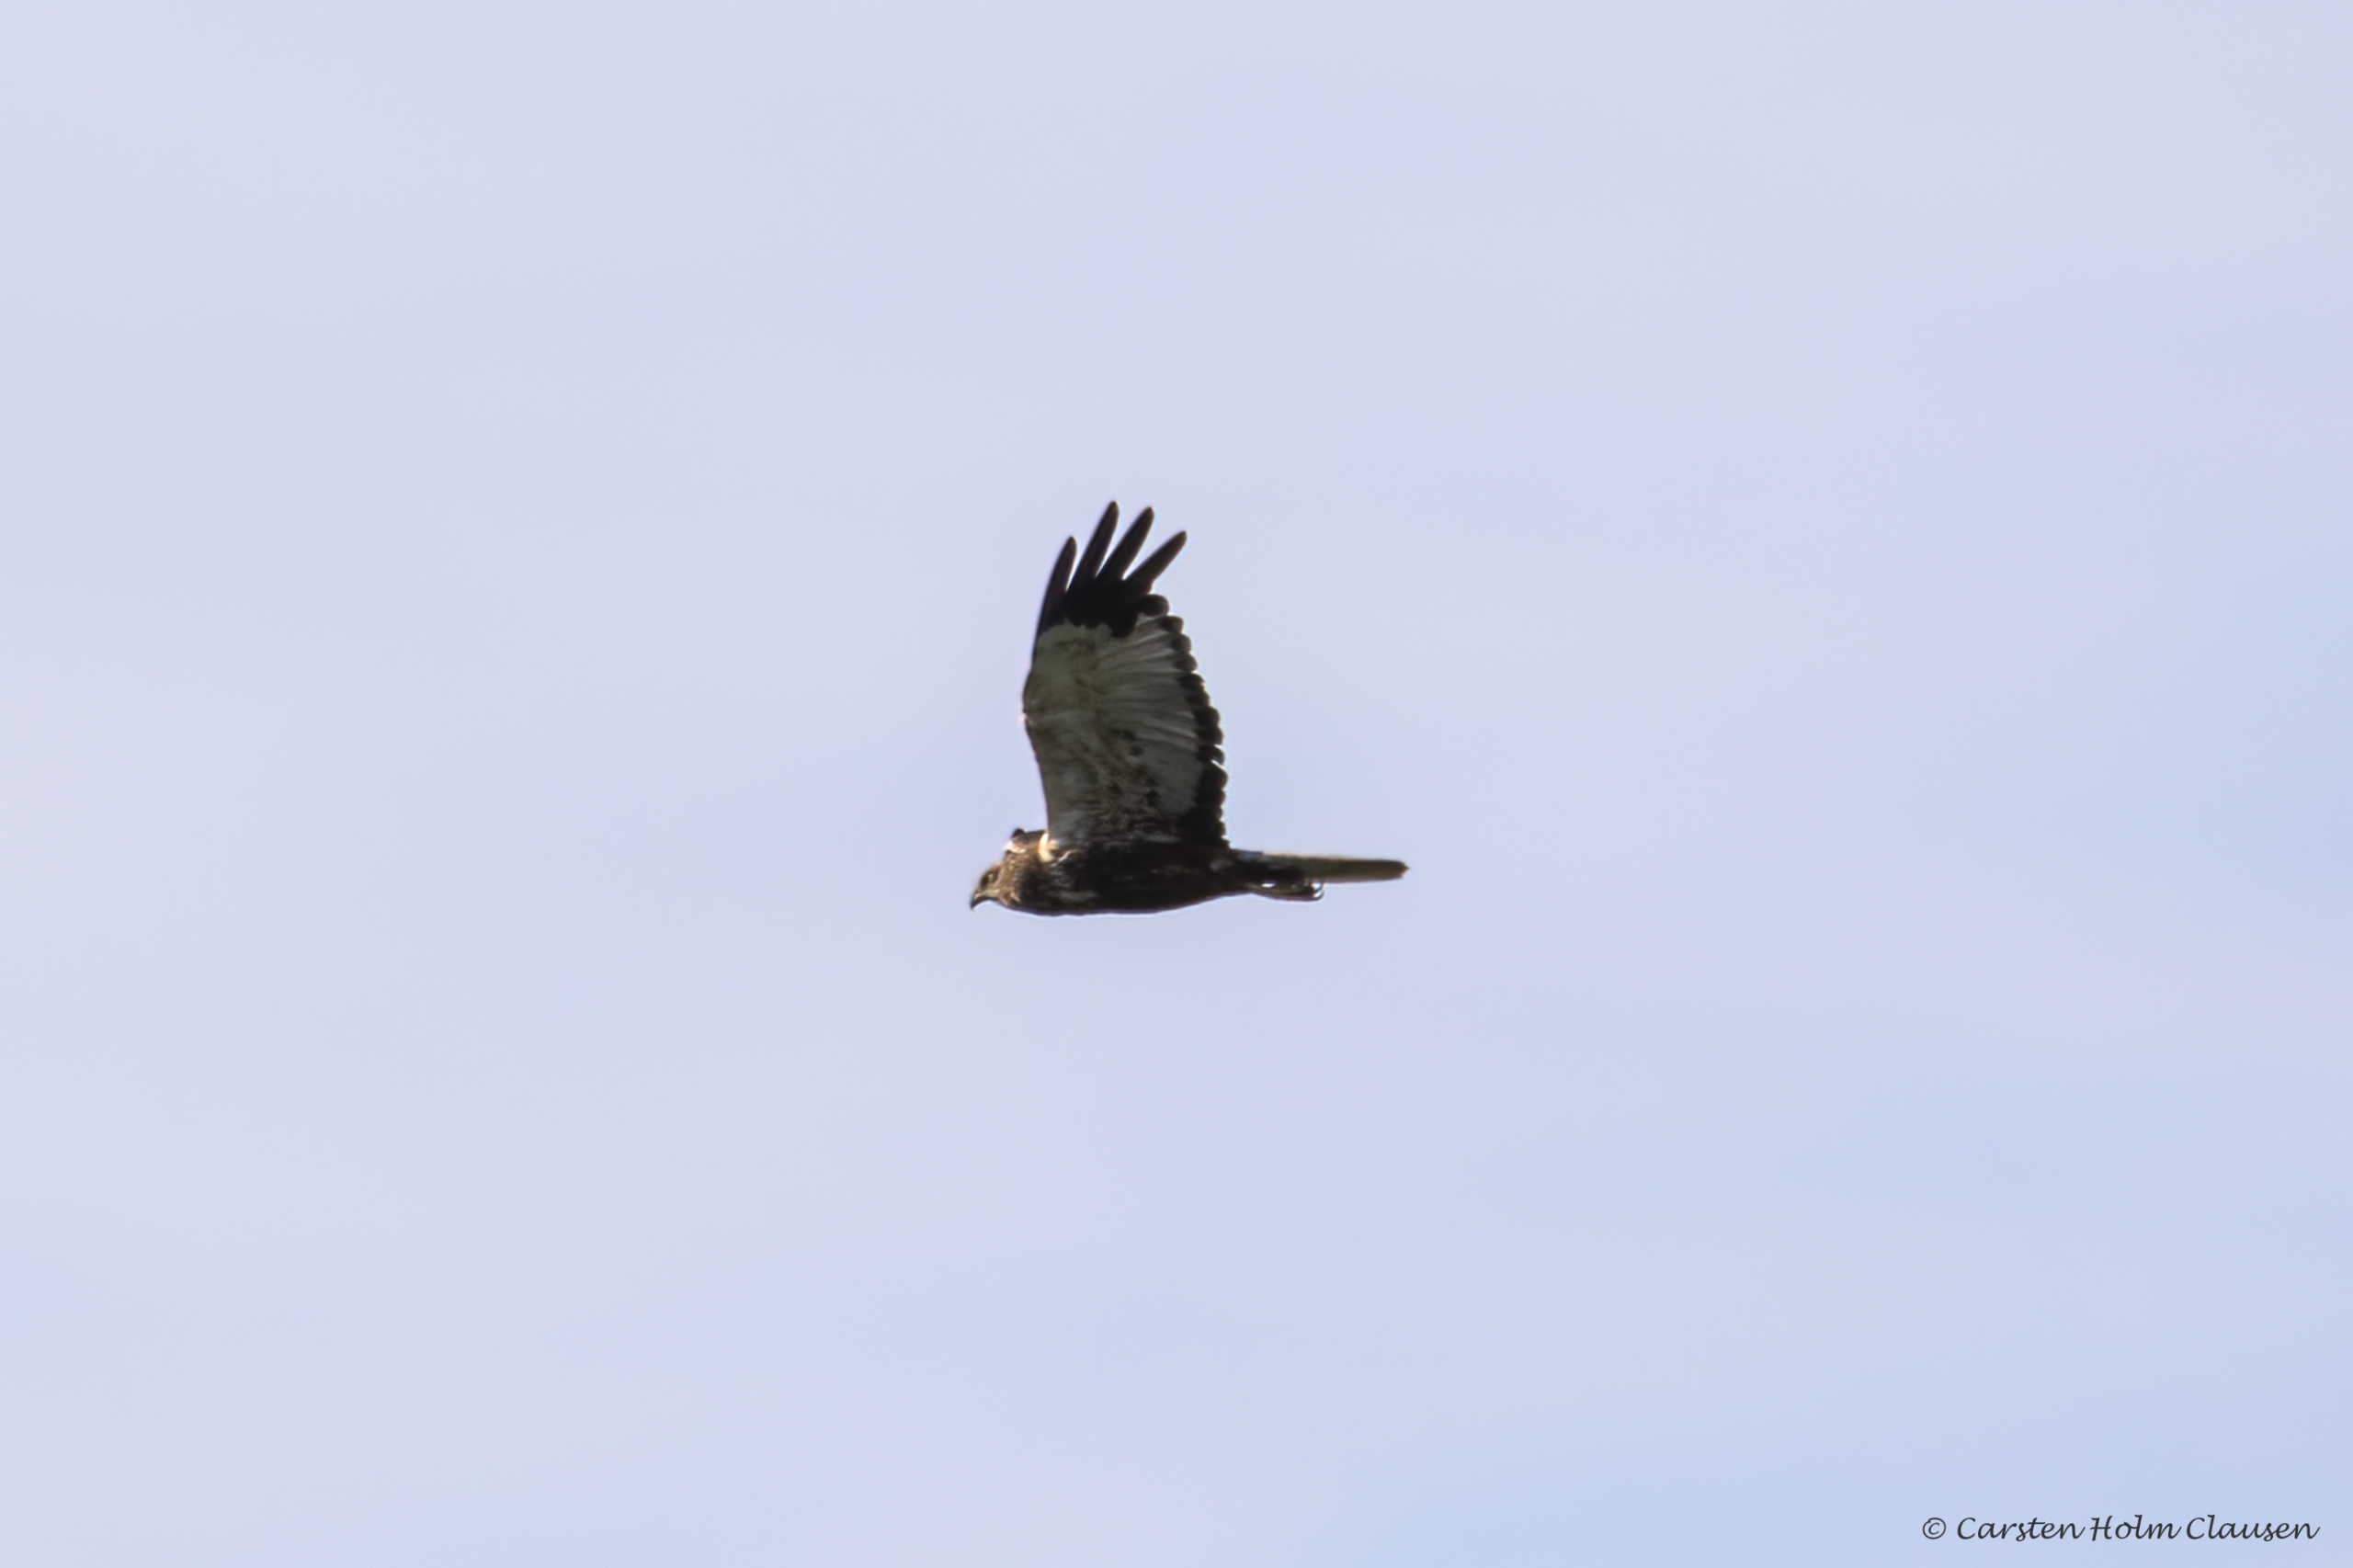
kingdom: Animalia
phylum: Chordata
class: Aves
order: Accipitriformes
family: Accipitridae
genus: Circus
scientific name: Circus aeruginosus
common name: Rørhøg
